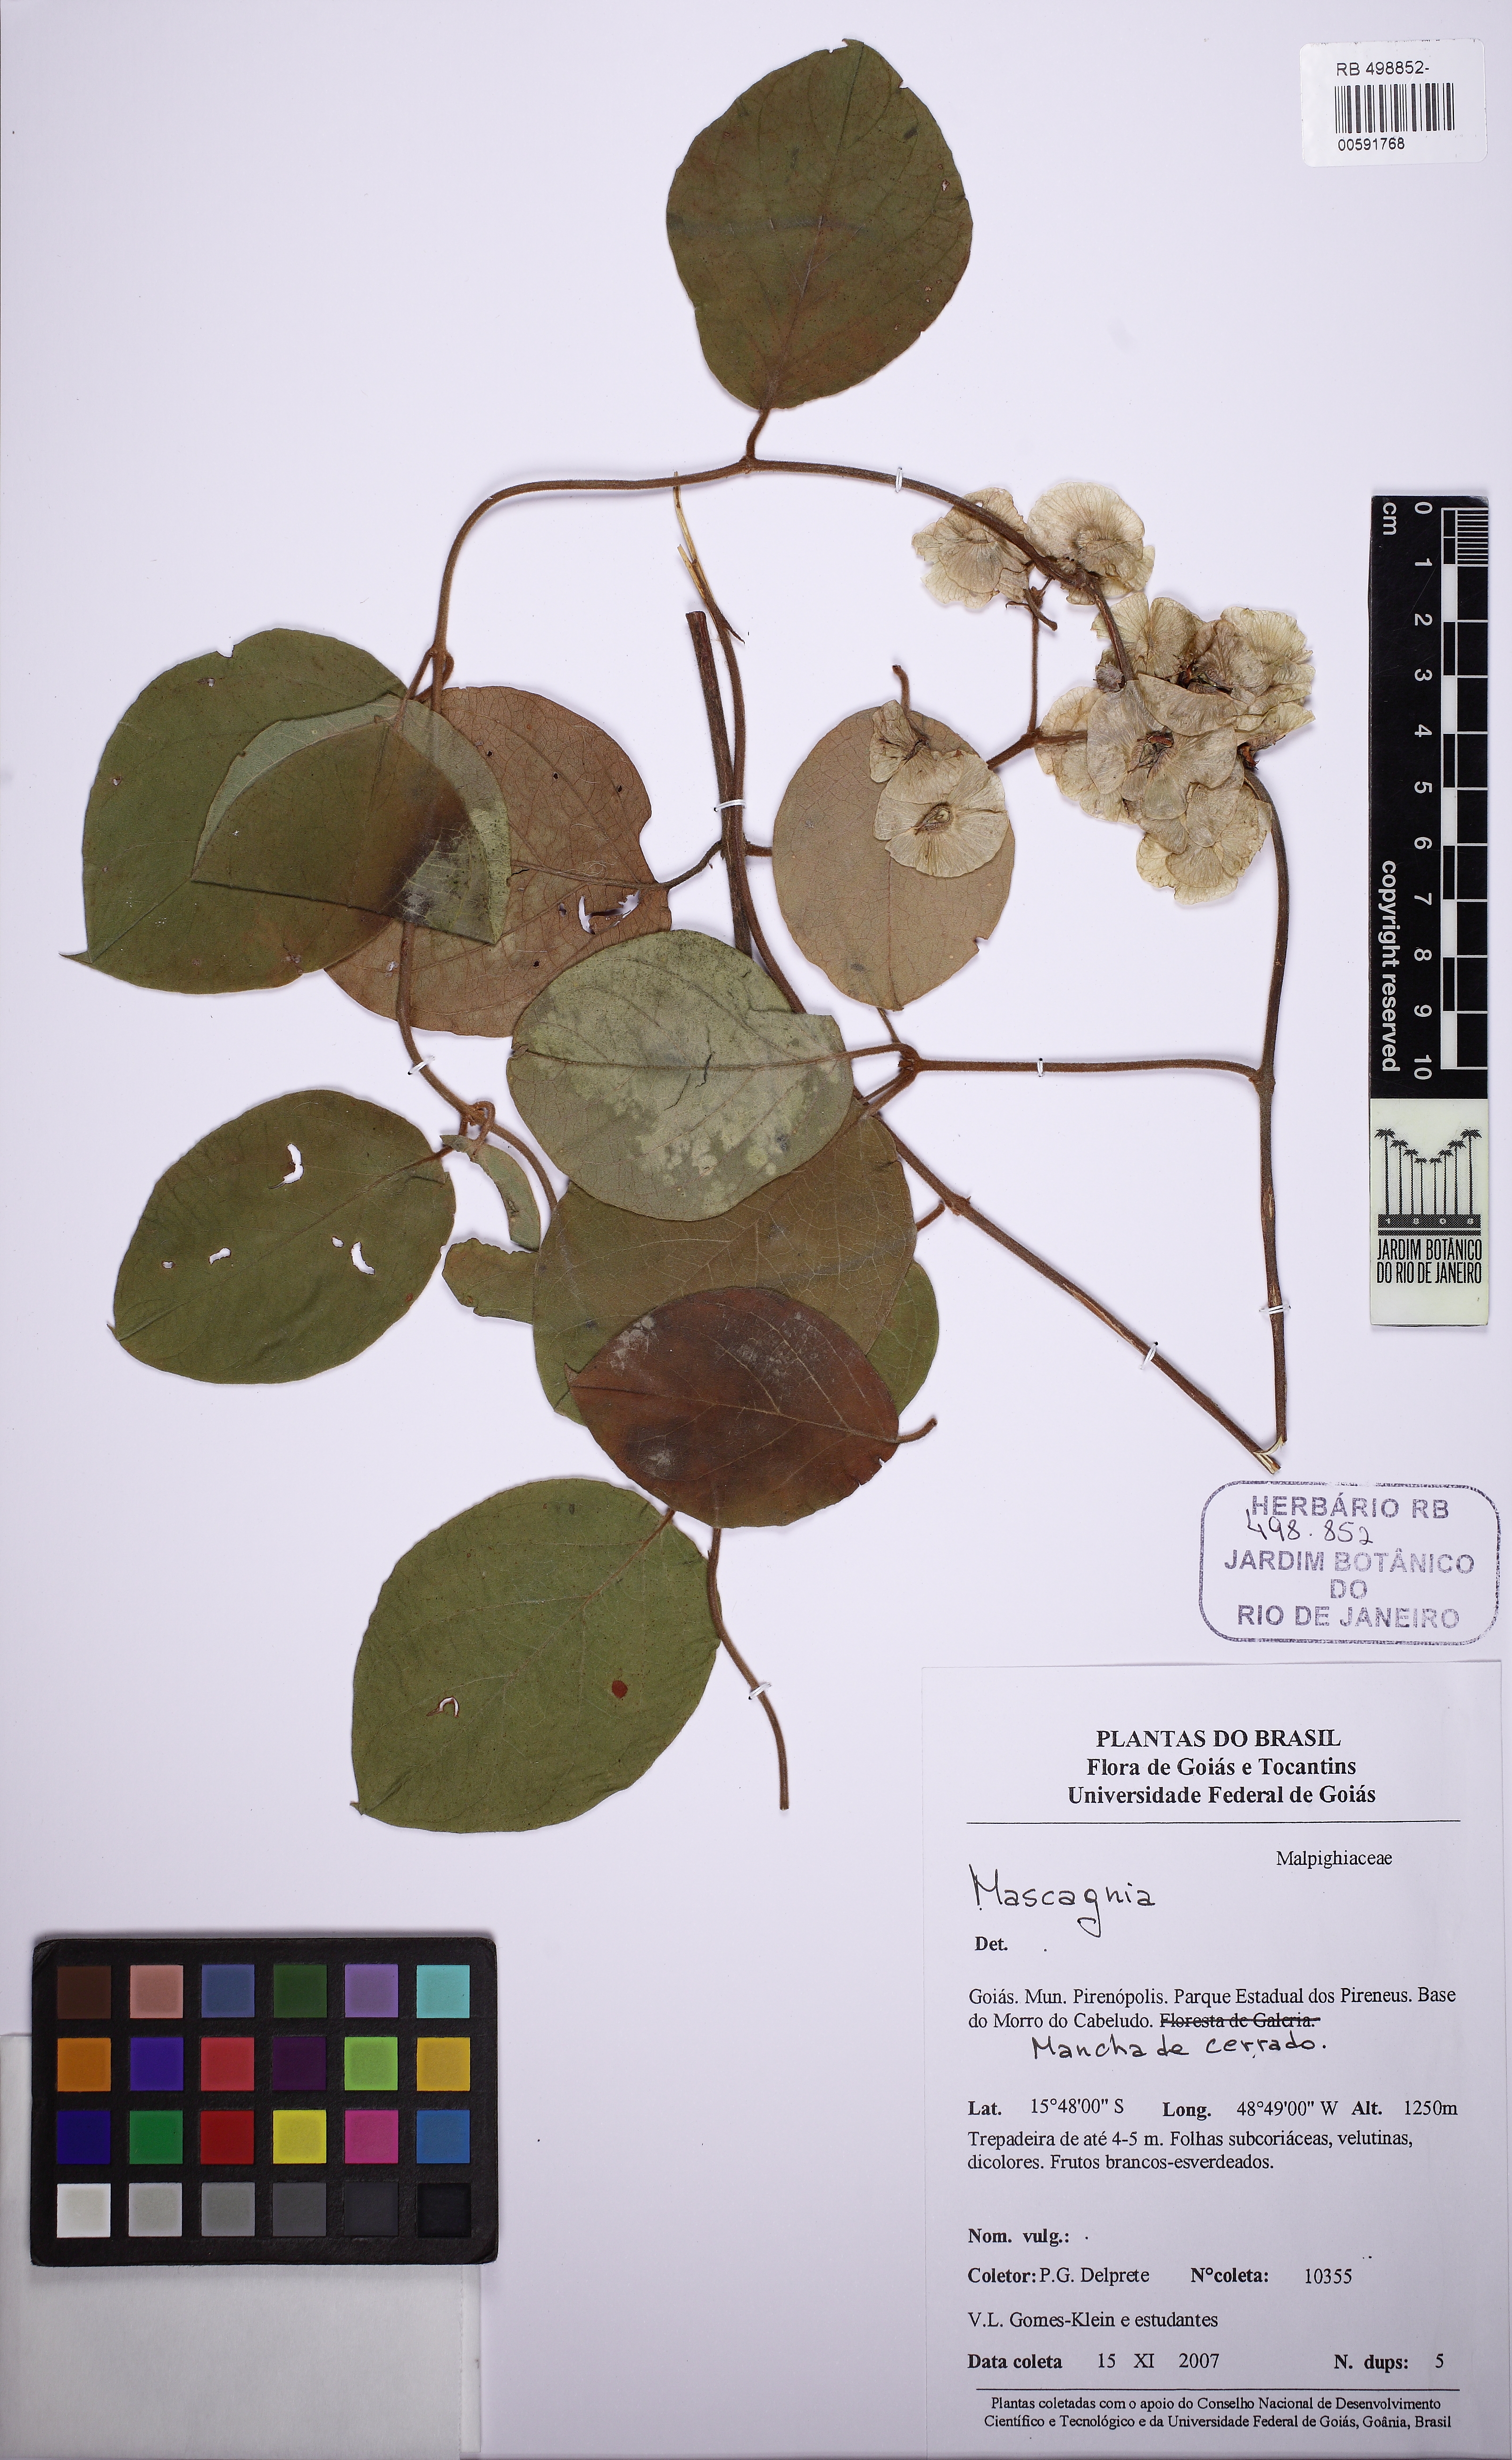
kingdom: Plantae
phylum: Tracheophyta
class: Magnoliopsida
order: Malpighiales
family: Malpighiaceae
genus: Mascagnia
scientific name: Mascagnia
